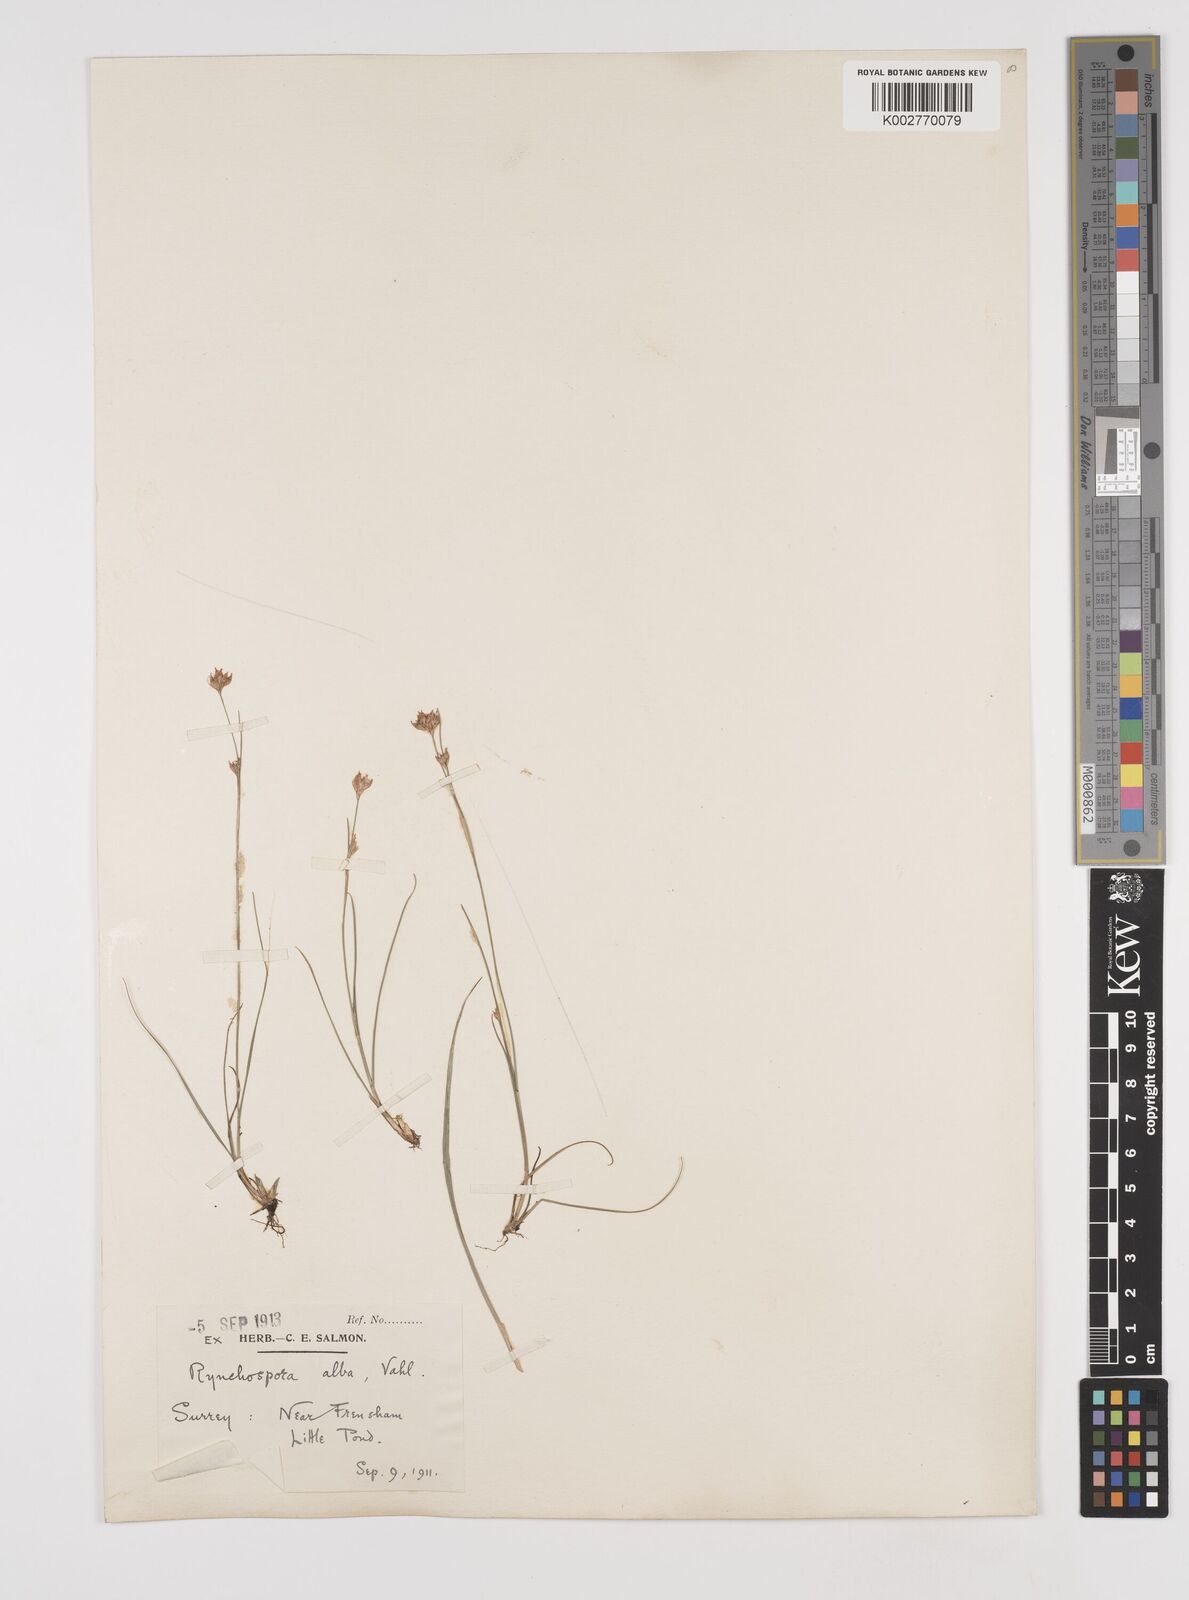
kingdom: Plantae
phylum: Tracheophyta
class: Liliopsida
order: Poales
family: Cyperaceae
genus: Rhynchospora
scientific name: Rhynchospora alba
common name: White beak-sedge
